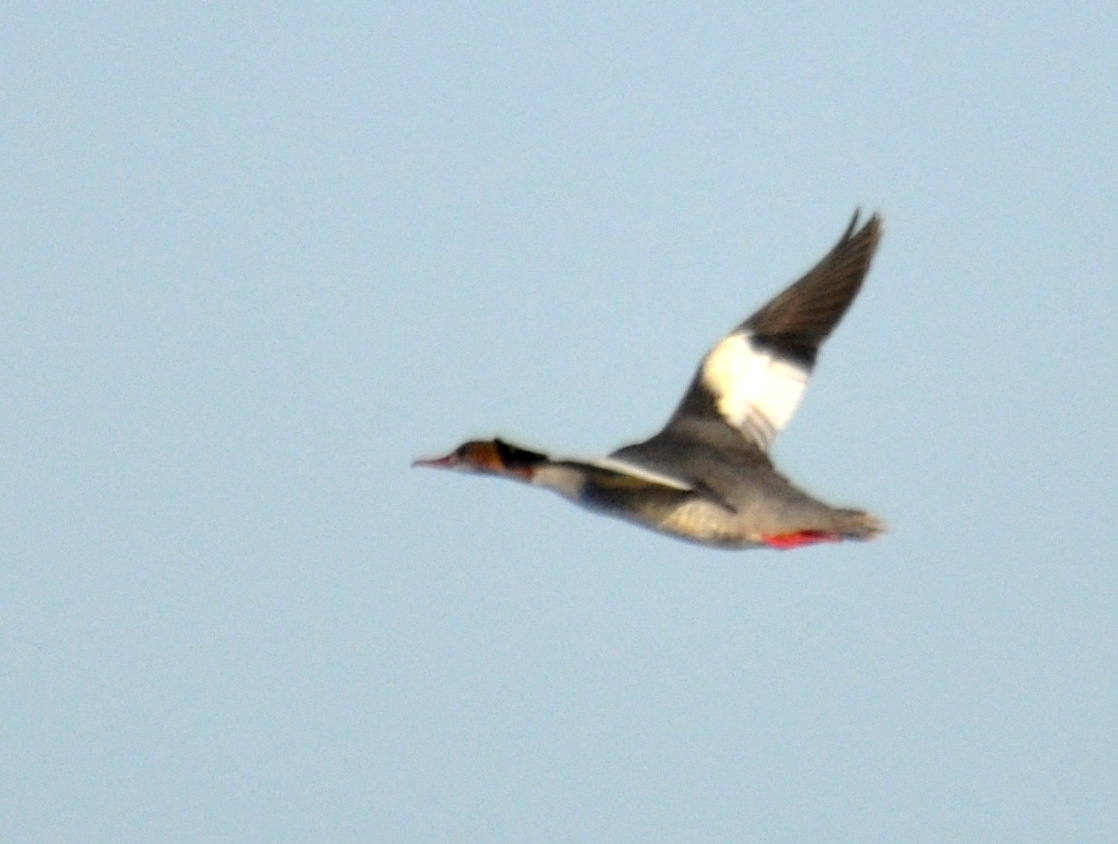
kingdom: Animalia
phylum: Chordata
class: Aves
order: Anseriformes
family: Anatidae
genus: Mergus
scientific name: Mergus merganser
